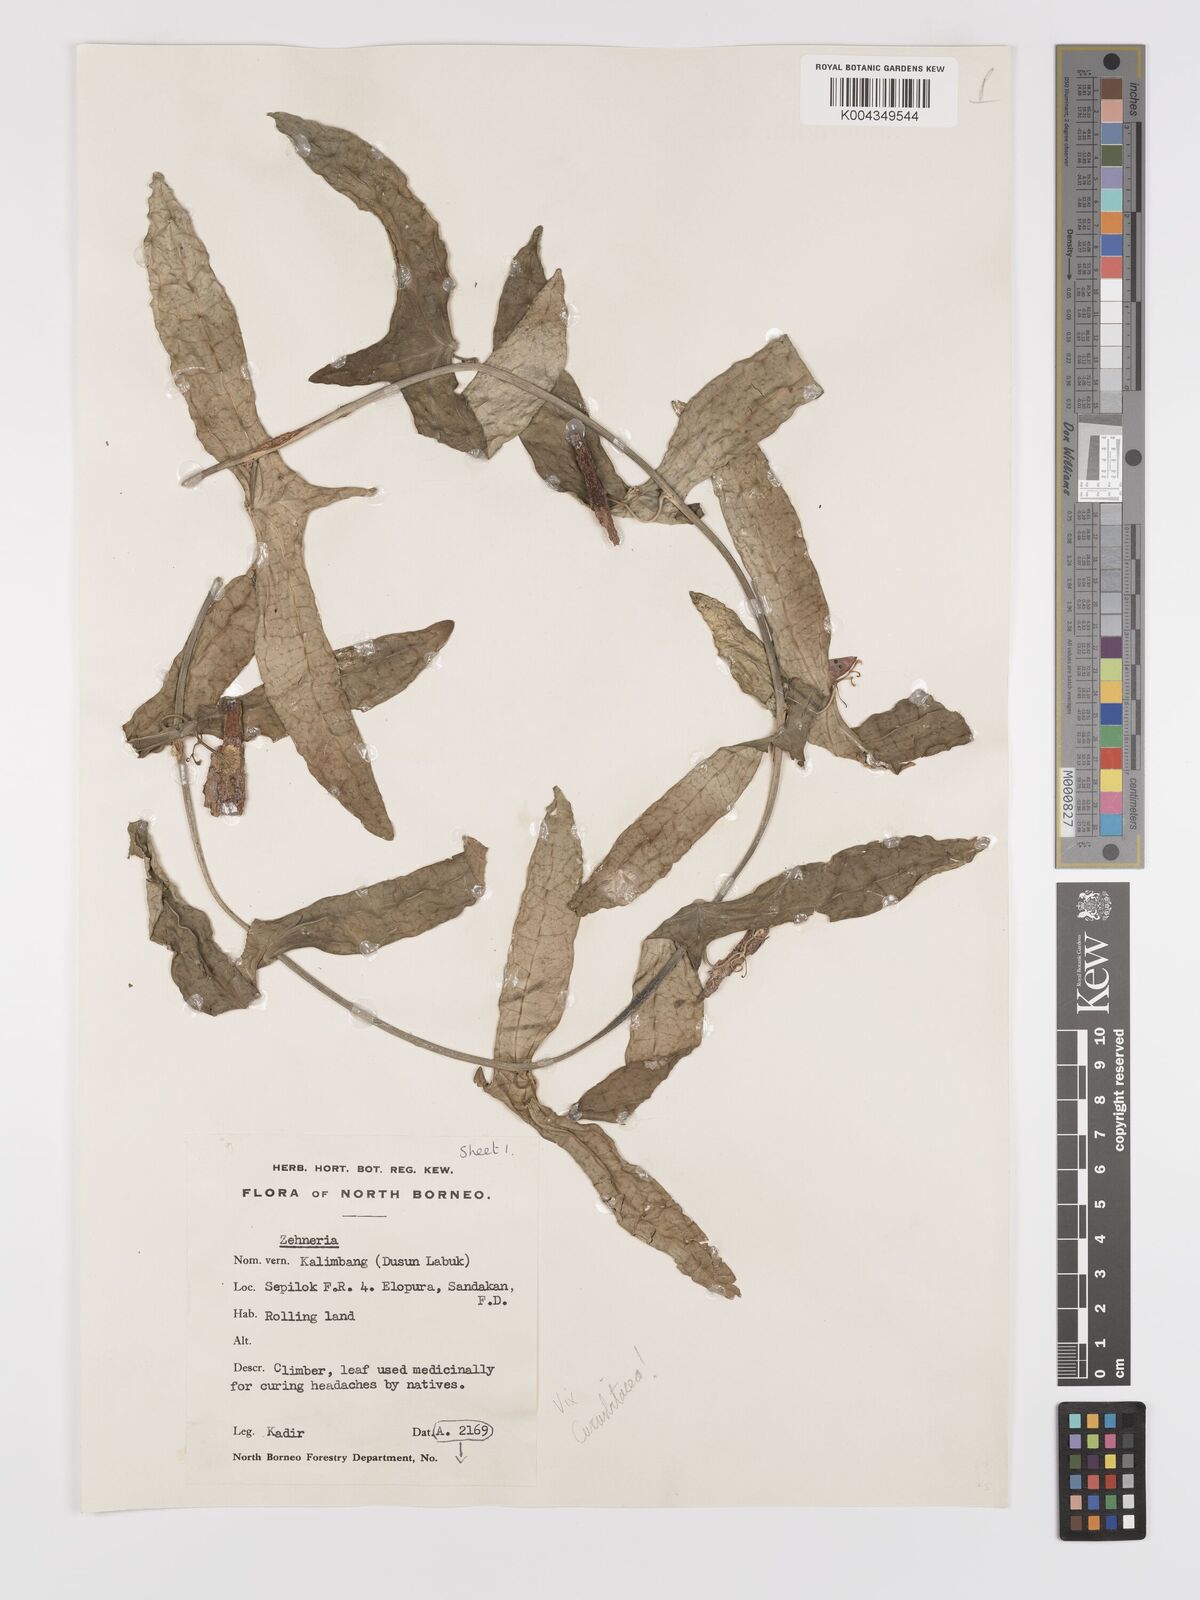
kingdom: Plantae
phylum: Tracheophyta
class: Magnoliopsida
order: Cucurbitales
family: Cucurbitaceae
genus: Zehneria
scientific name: Zehneria
